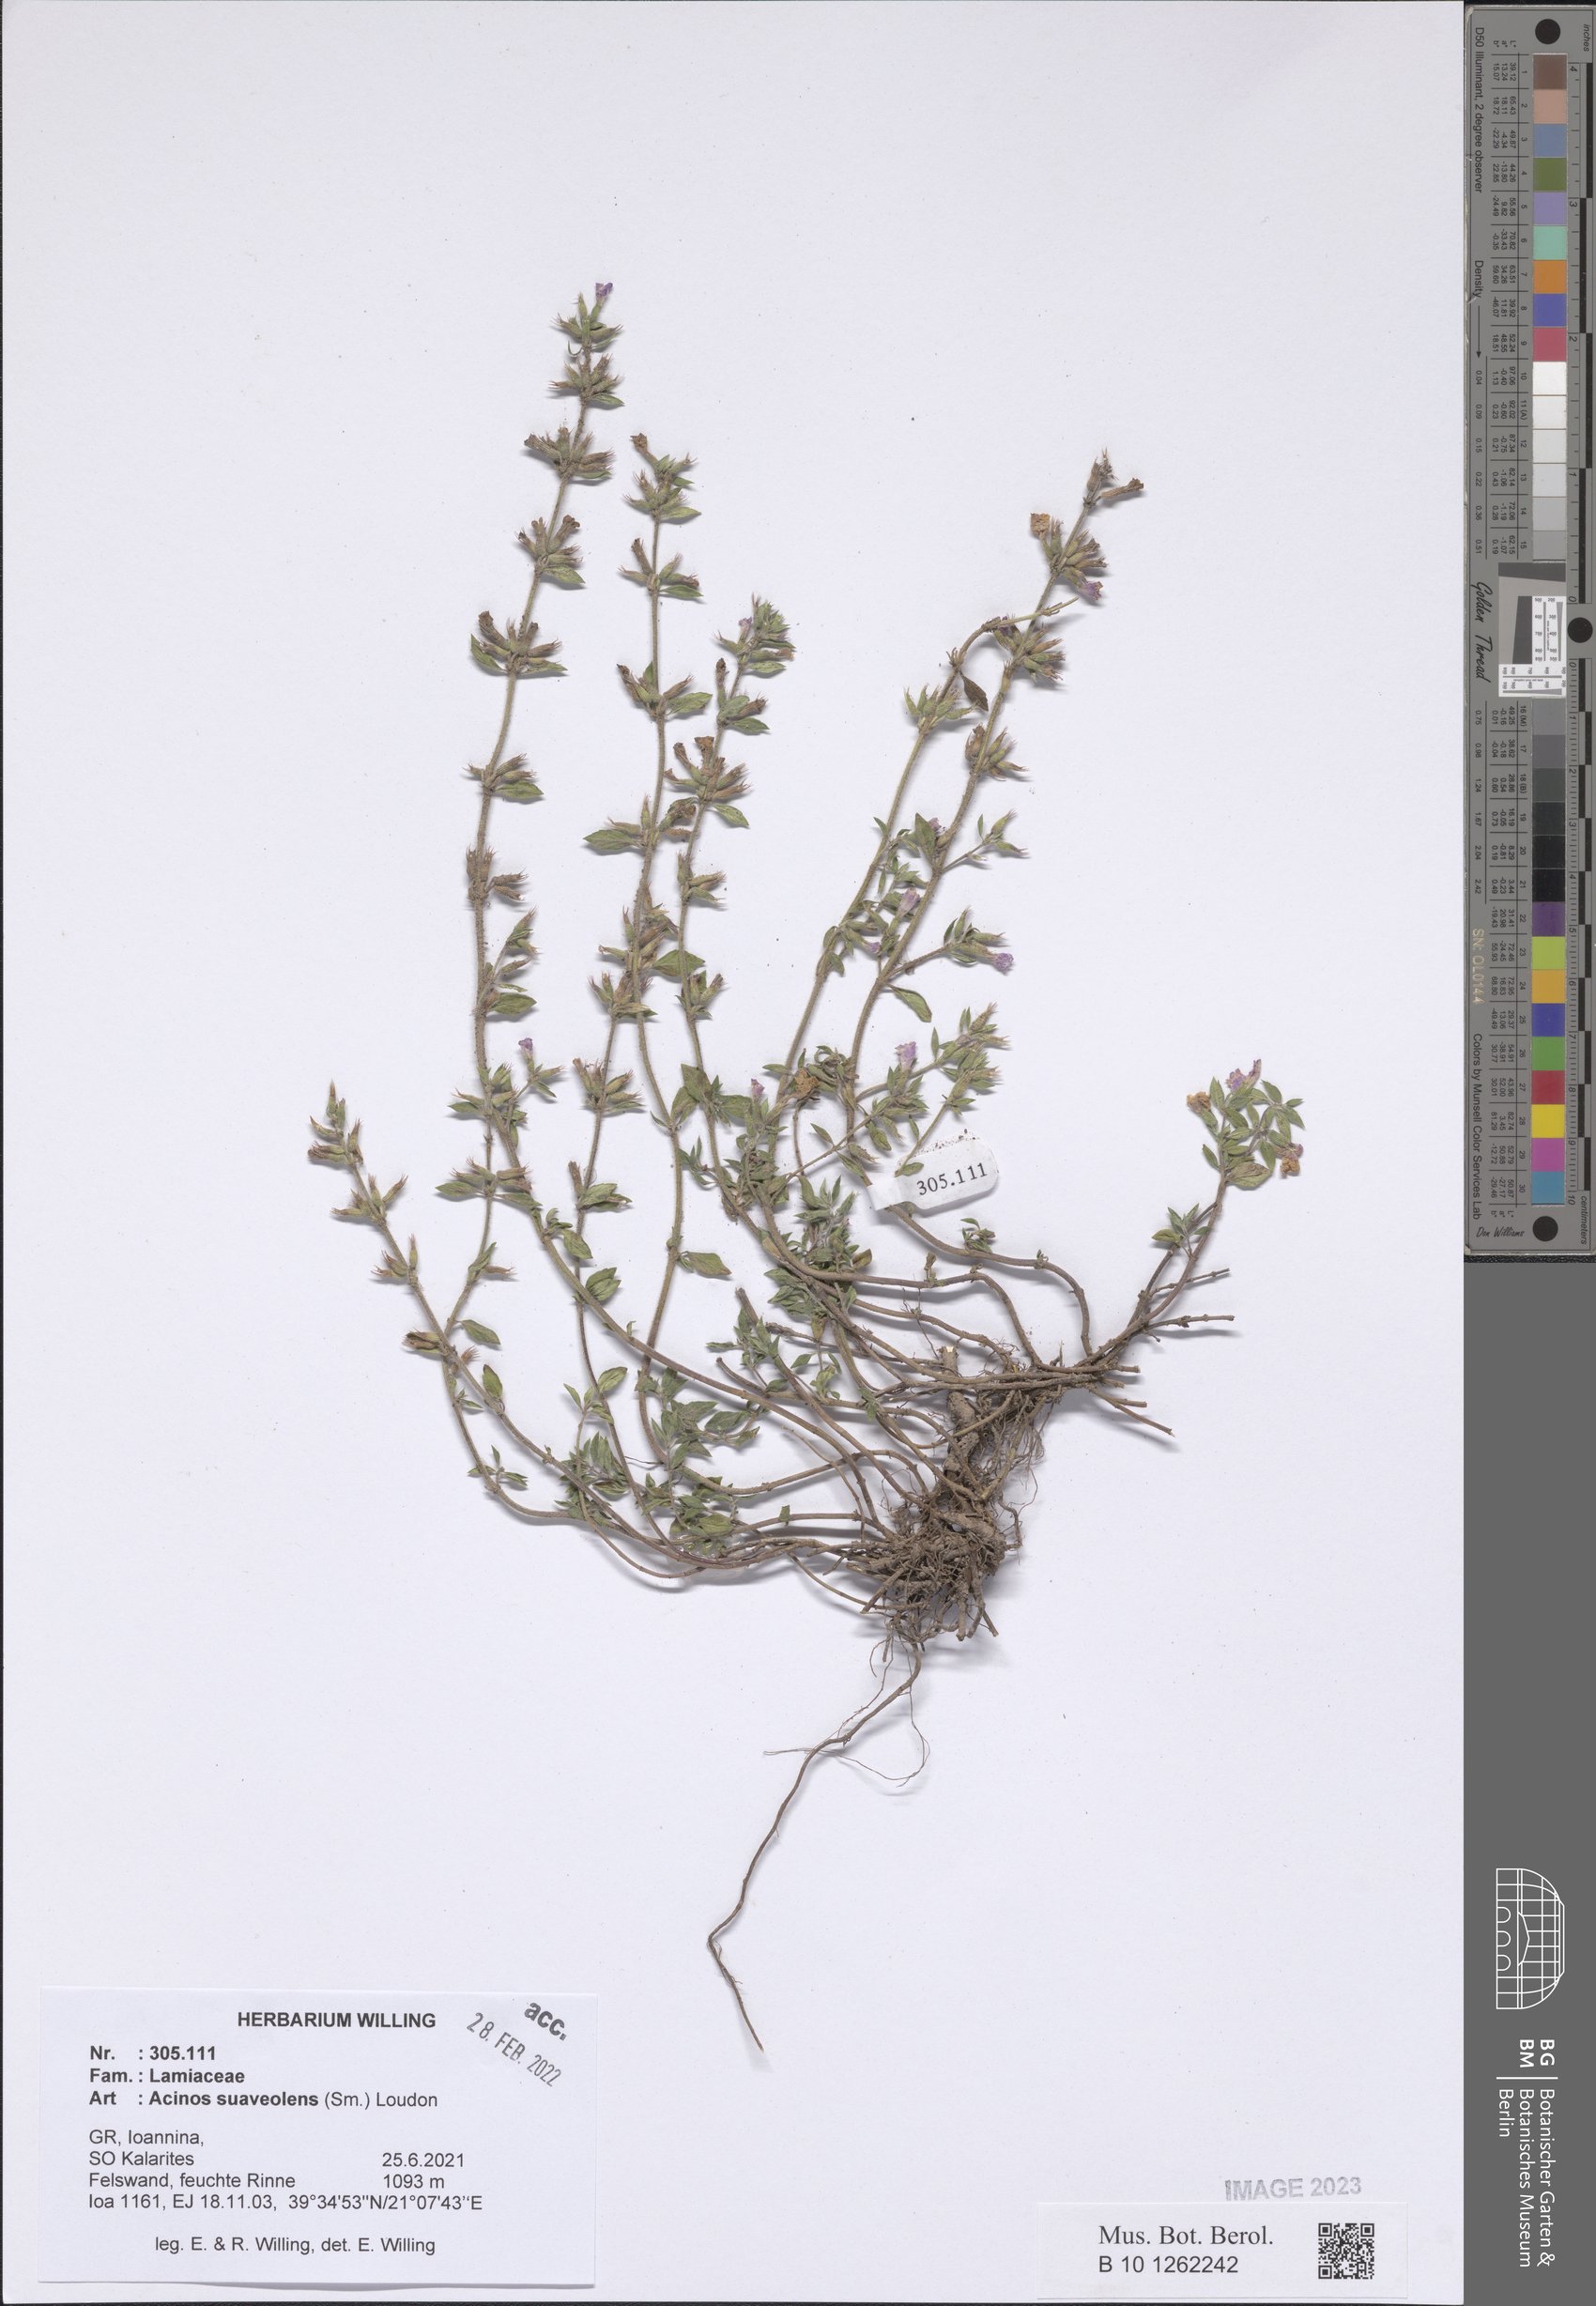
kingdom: Plantae
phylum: Tracheophyta
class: Magnoliopsida
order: Lamiales
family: Lamiaceae
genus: Clinopodium
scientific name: Clinopodium suaveolens
